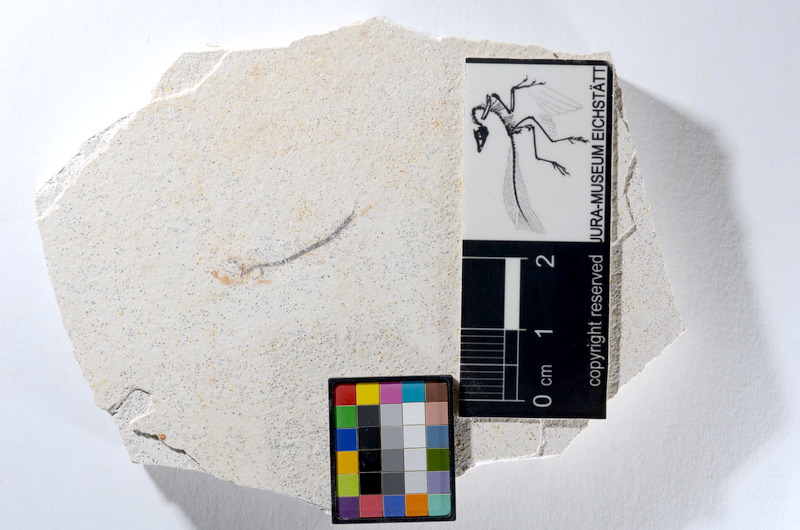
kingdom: Animalia
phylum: Chordata
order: Salmoniformes
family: Orthogonikleithridae
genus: Orthogonikleithrus
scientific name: Orthogonikleithrus hoelli
